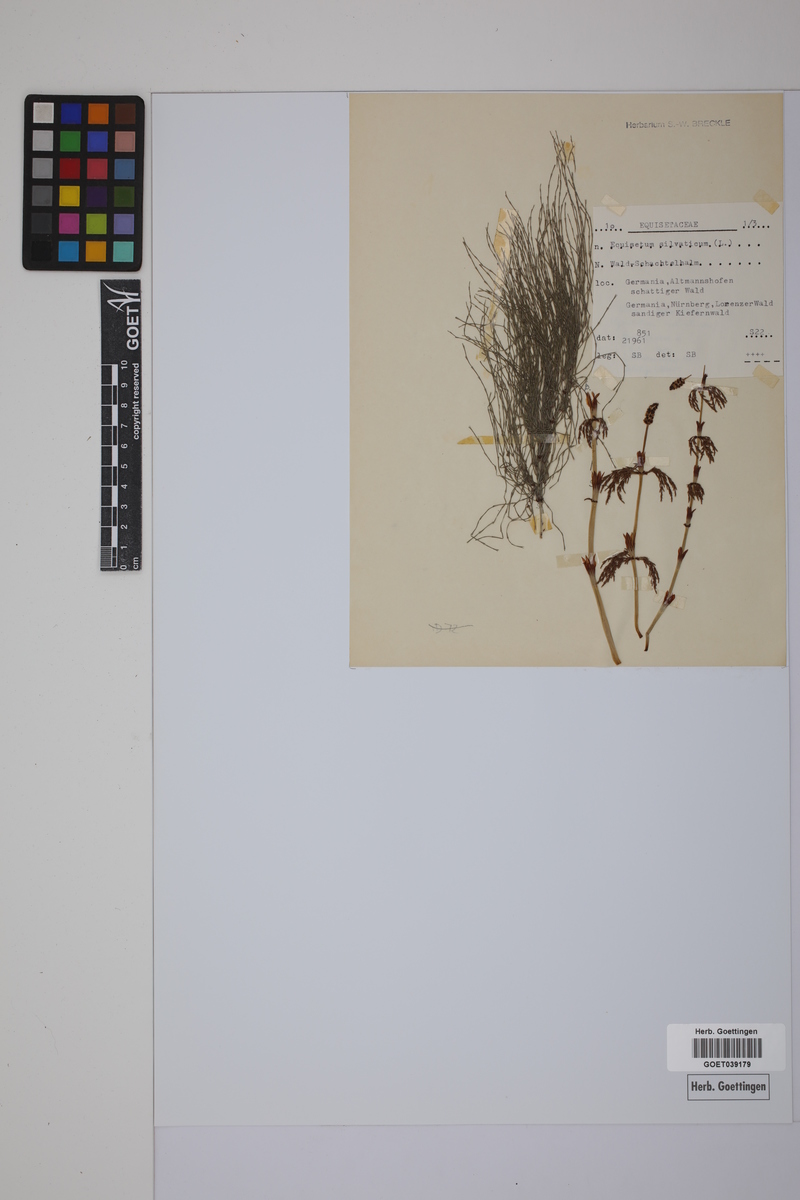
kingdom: Plantae
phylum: Tracheophyta
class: Polypodiopsida
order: Equisetales
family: Equisetaceae
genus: Equisetum
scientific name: Equisetum sylvaticum
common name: Wood horsetail
